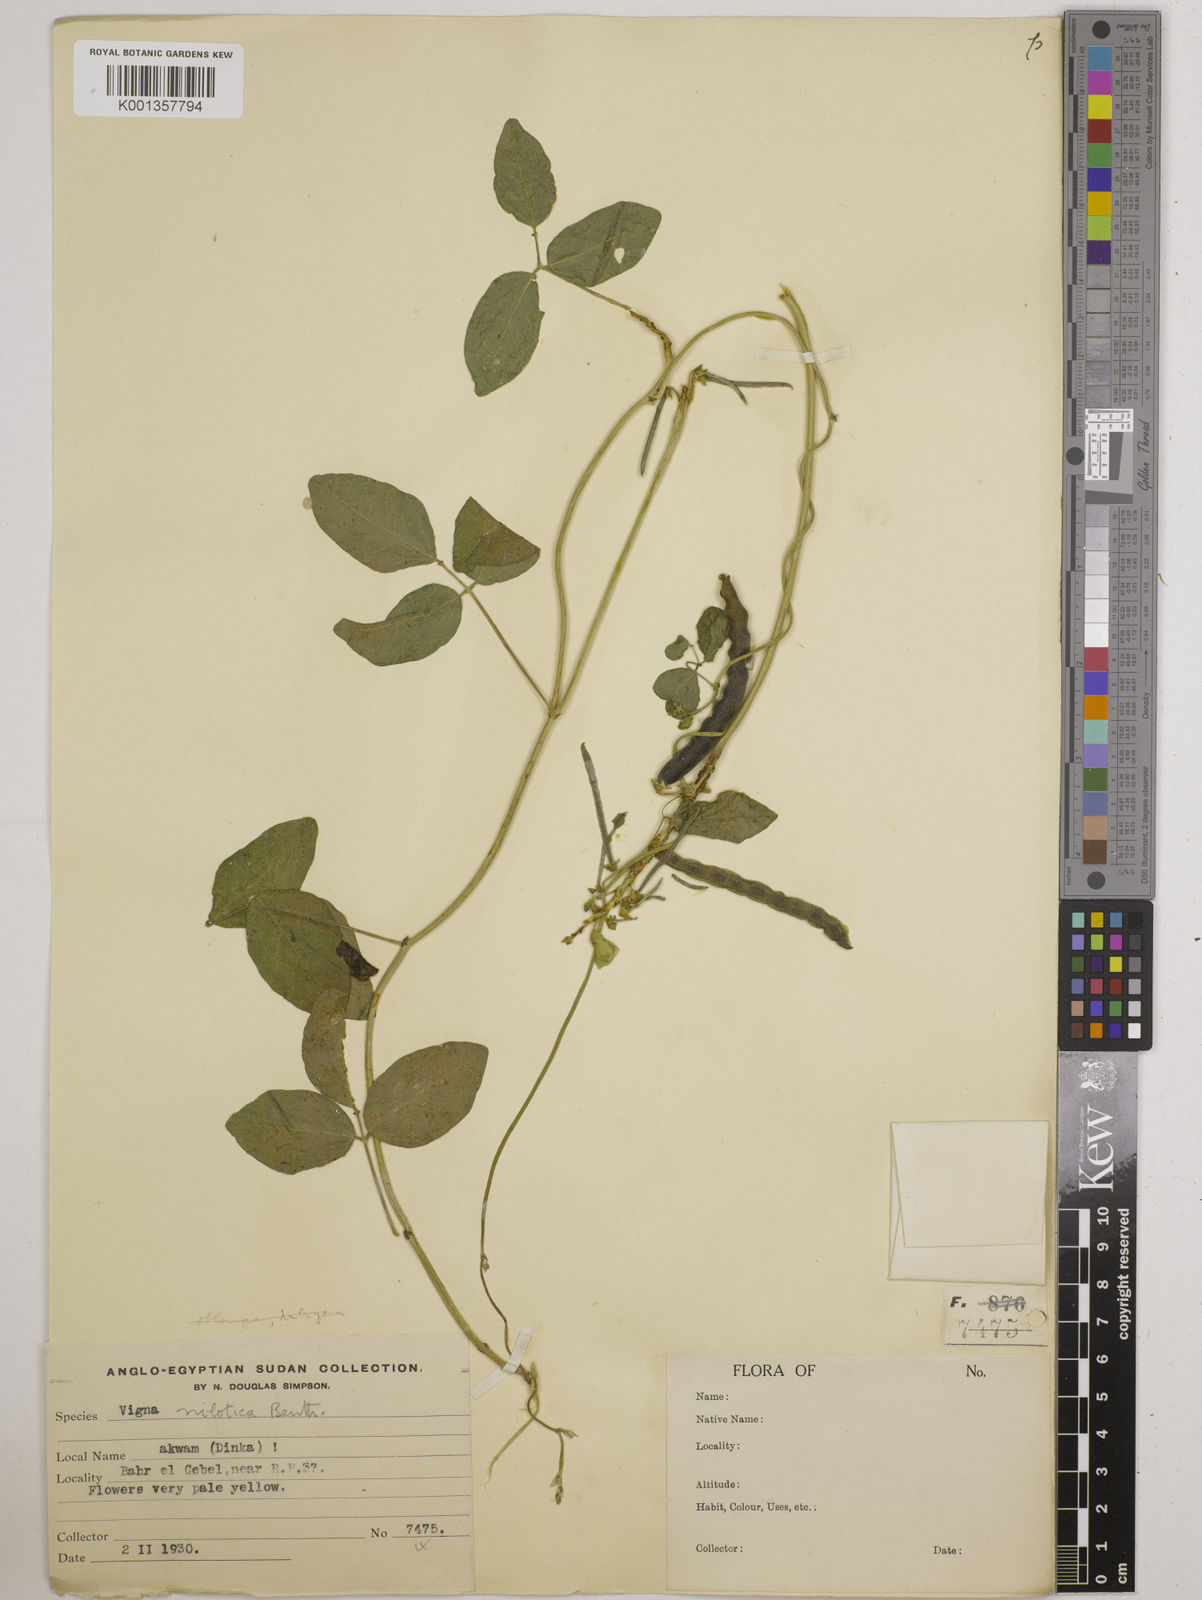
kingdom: Plantae
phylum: Tracheophyta
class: Magnoliopsida
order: Fabales
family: Fabaceae
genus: Vigna
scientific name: Vigna luteola
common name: Hairypod cowpea
